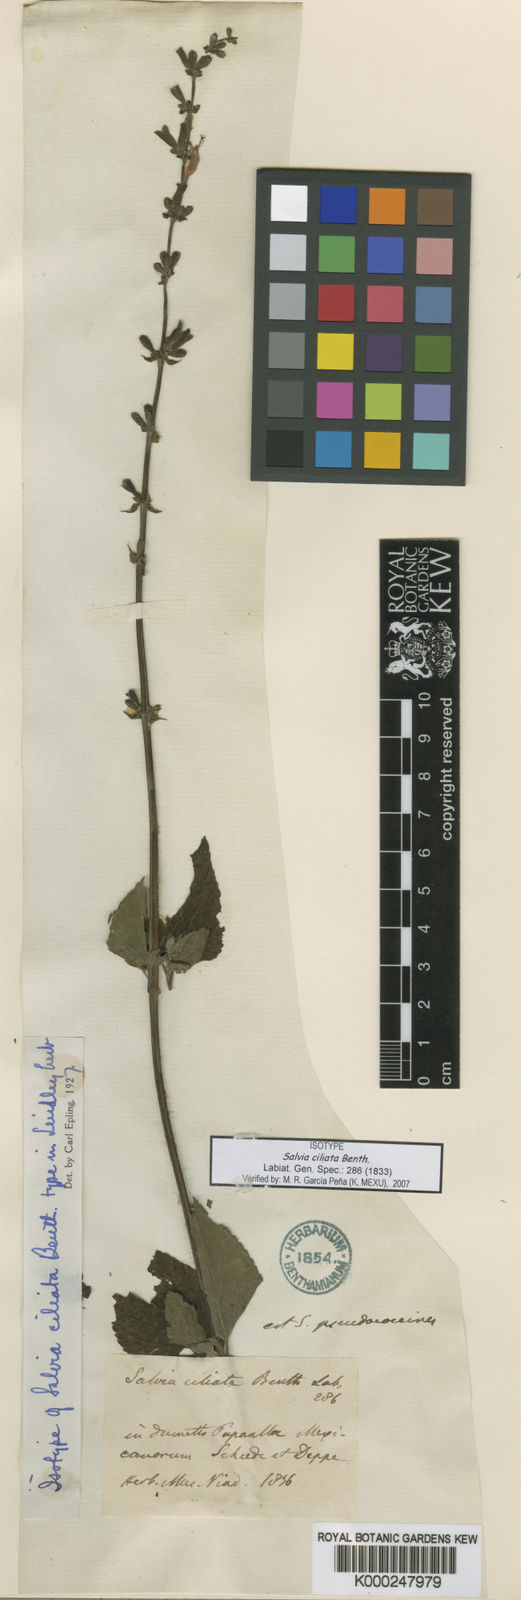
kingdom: Plantae
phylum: Tracheophyta
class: Magnoliopsida
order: Lamiales
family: Lamiaceae
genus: Salvia
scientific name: Salvia coccinea
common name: Blood sage
